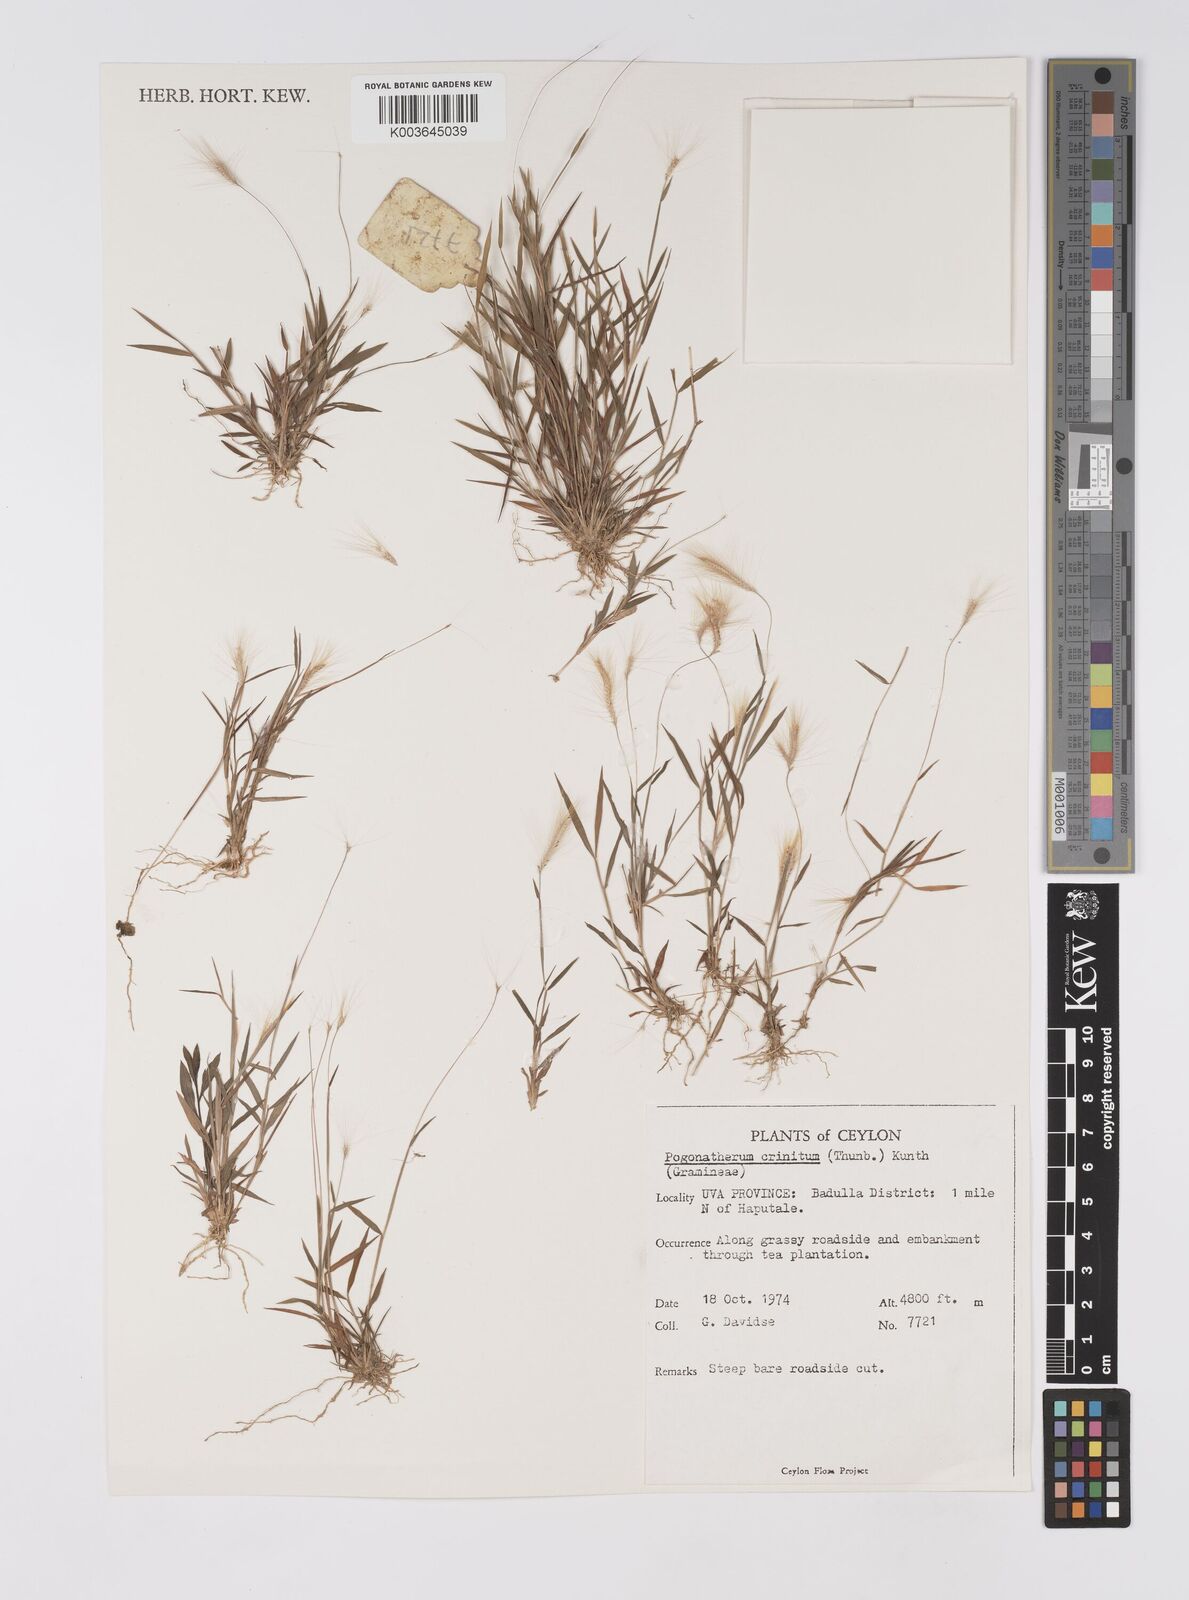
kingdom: Plantae
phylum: Tracheophyta
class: Liliopsida
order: Poales
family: Poaceae
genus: Pogonatherum
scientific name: Pogonatherum crinitum
